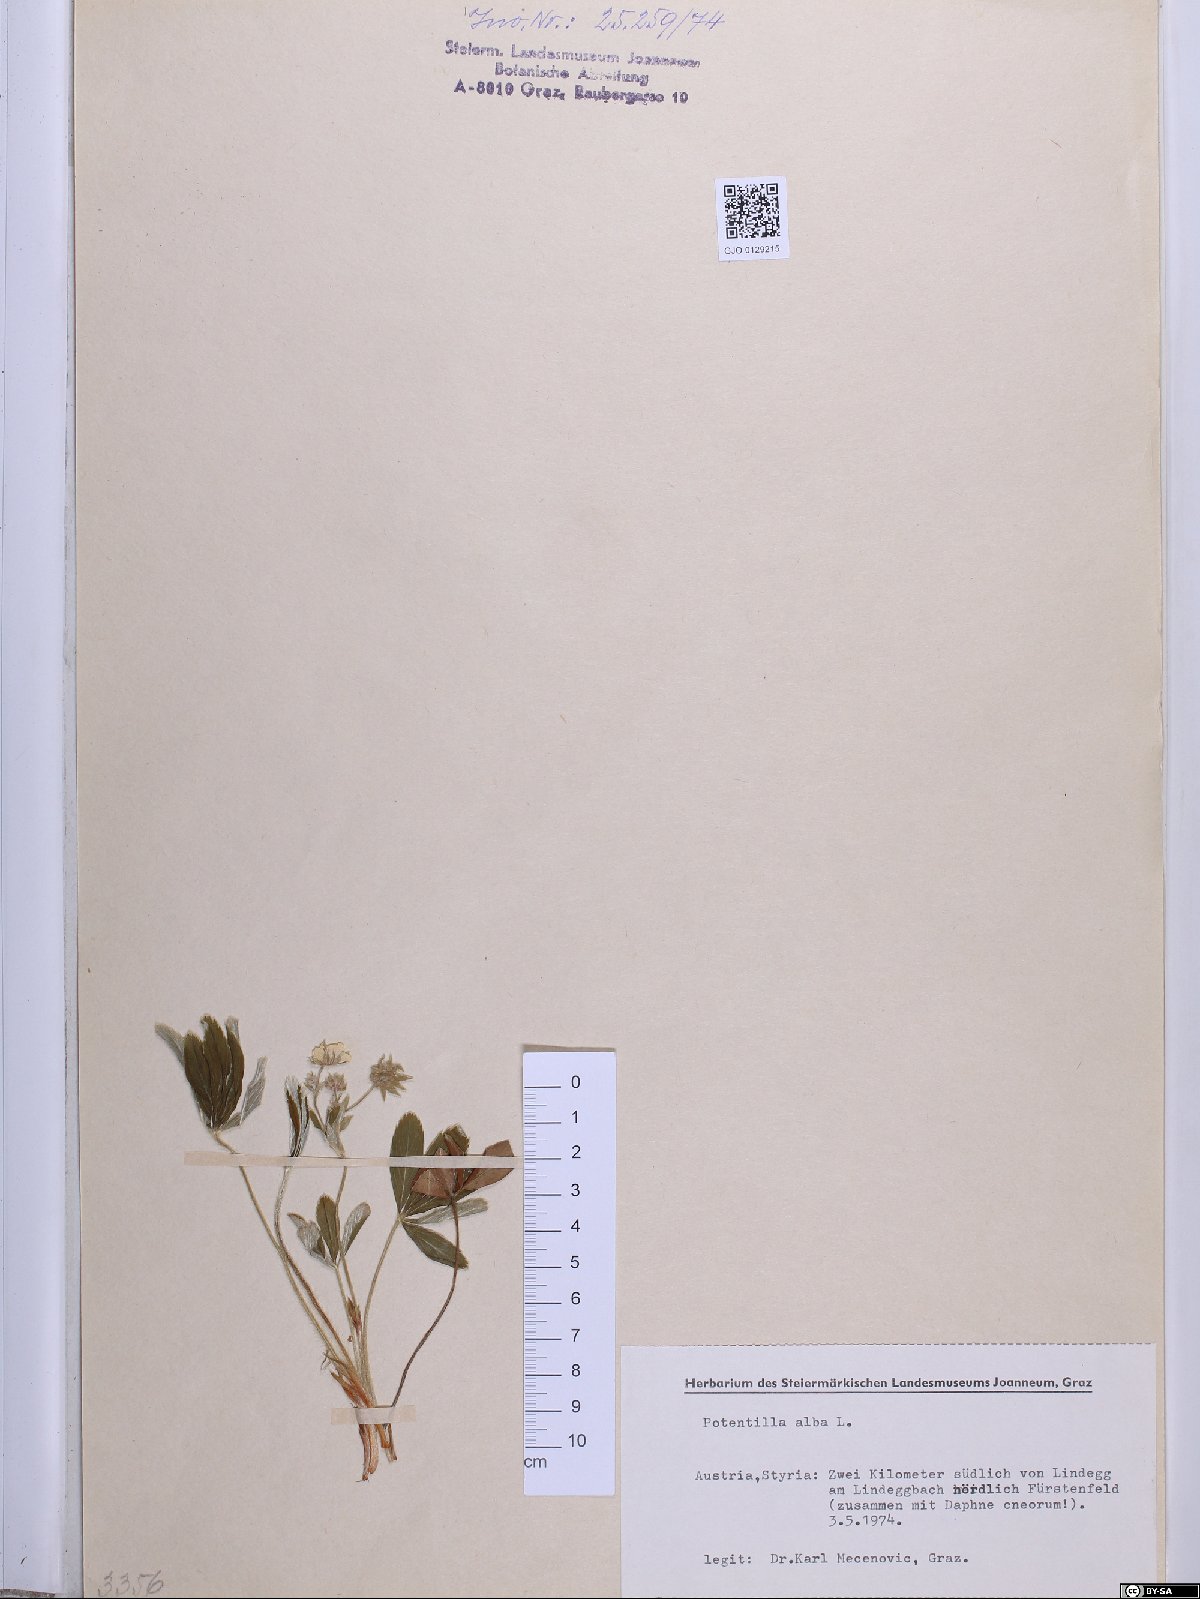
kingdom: Plantae
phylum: Tracheophyta
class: Magnoliopsida
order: Rosales
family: Rosaceae
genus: Potentilla
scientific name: Potentilla alba
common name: White cinquefoil
